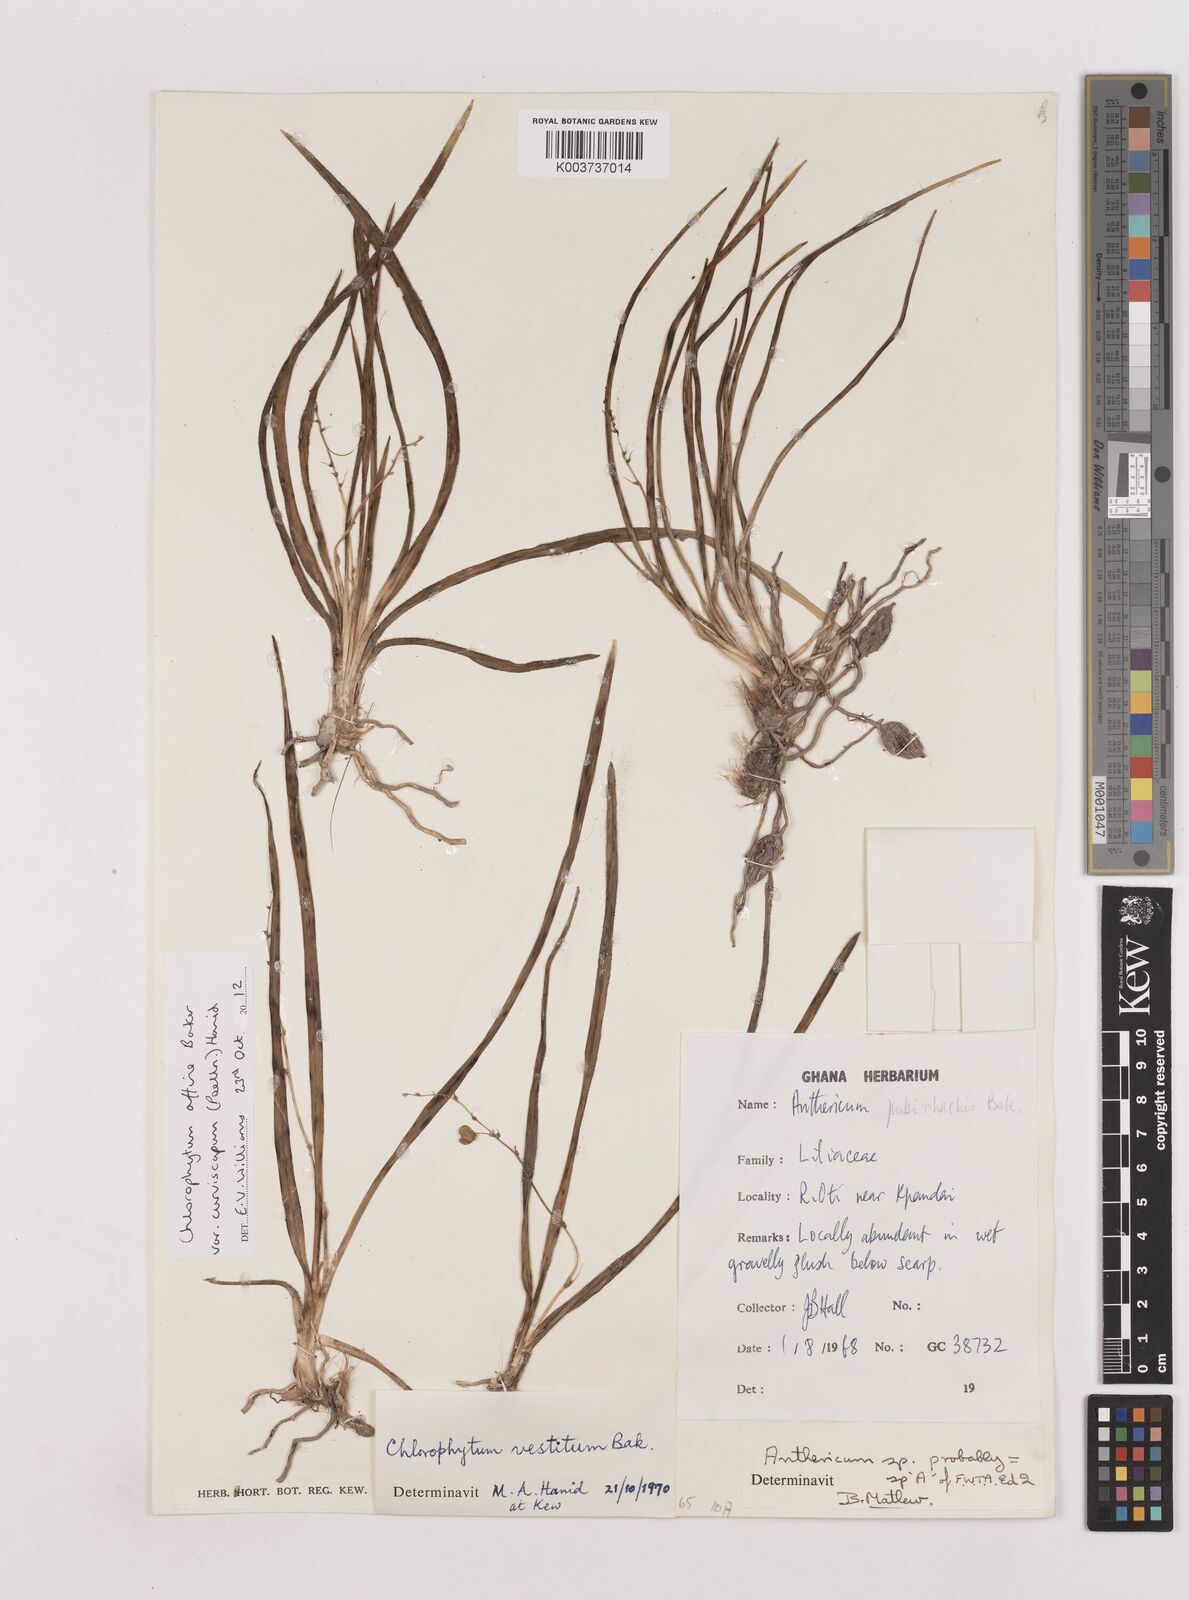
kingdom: Plantae
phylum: Tracheophyta
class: Liliopsida
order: Asparagales
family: Asparagaceae
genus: Chlorophytum
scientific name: Chlorophytum tordense
